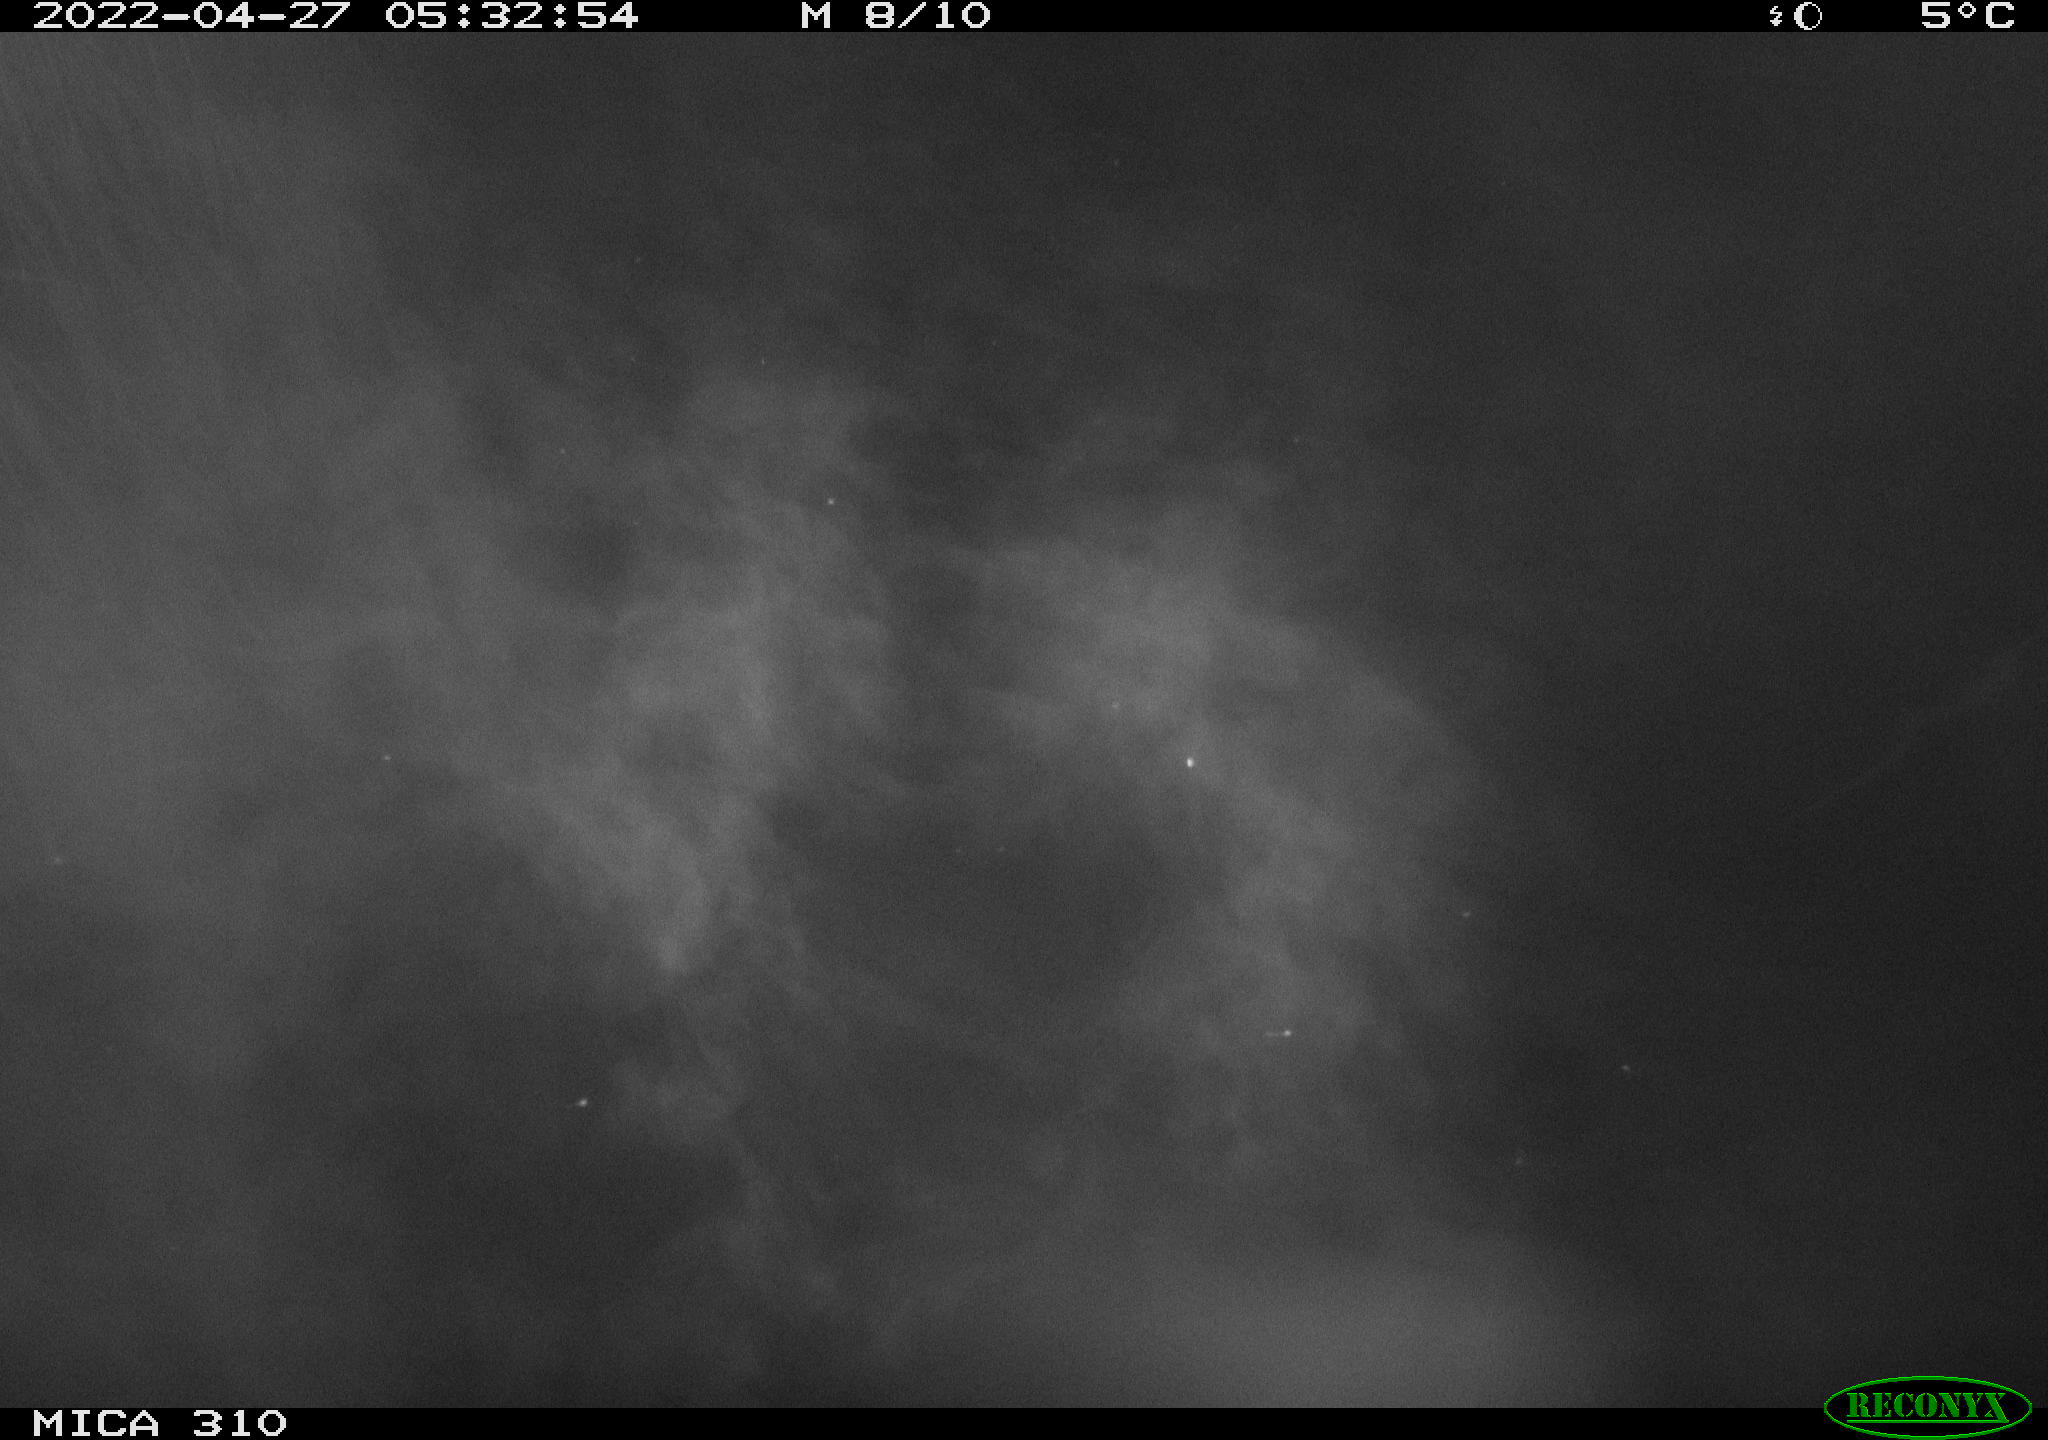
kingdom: Animalia
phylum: Chordata
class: Aves
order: Anseriformes
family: Anatidae
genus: Mareca
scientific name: Mareca strepera
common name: Gadwall
